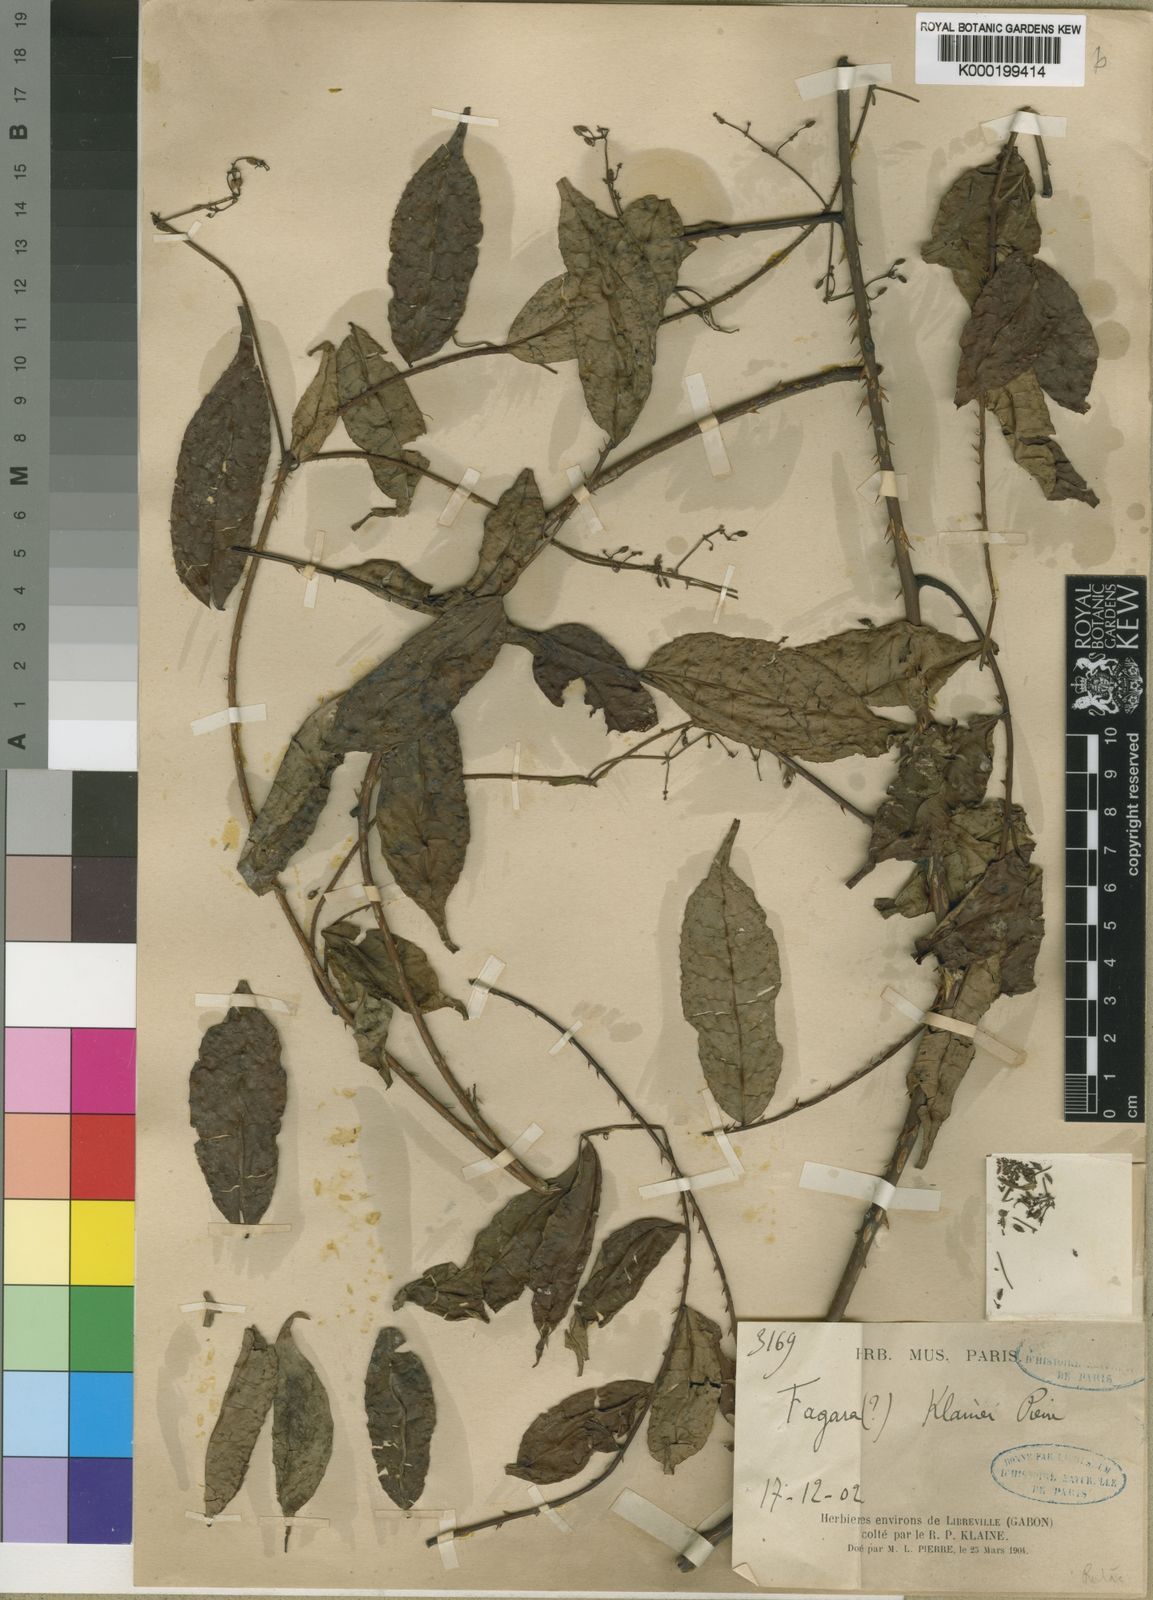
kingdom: Plantae
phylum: Tracheophyta
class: Magnoliopsida
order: Sapindales
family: Rutaceae
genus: Zanthoxylum
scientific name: Zanthoxylum dinklagei
